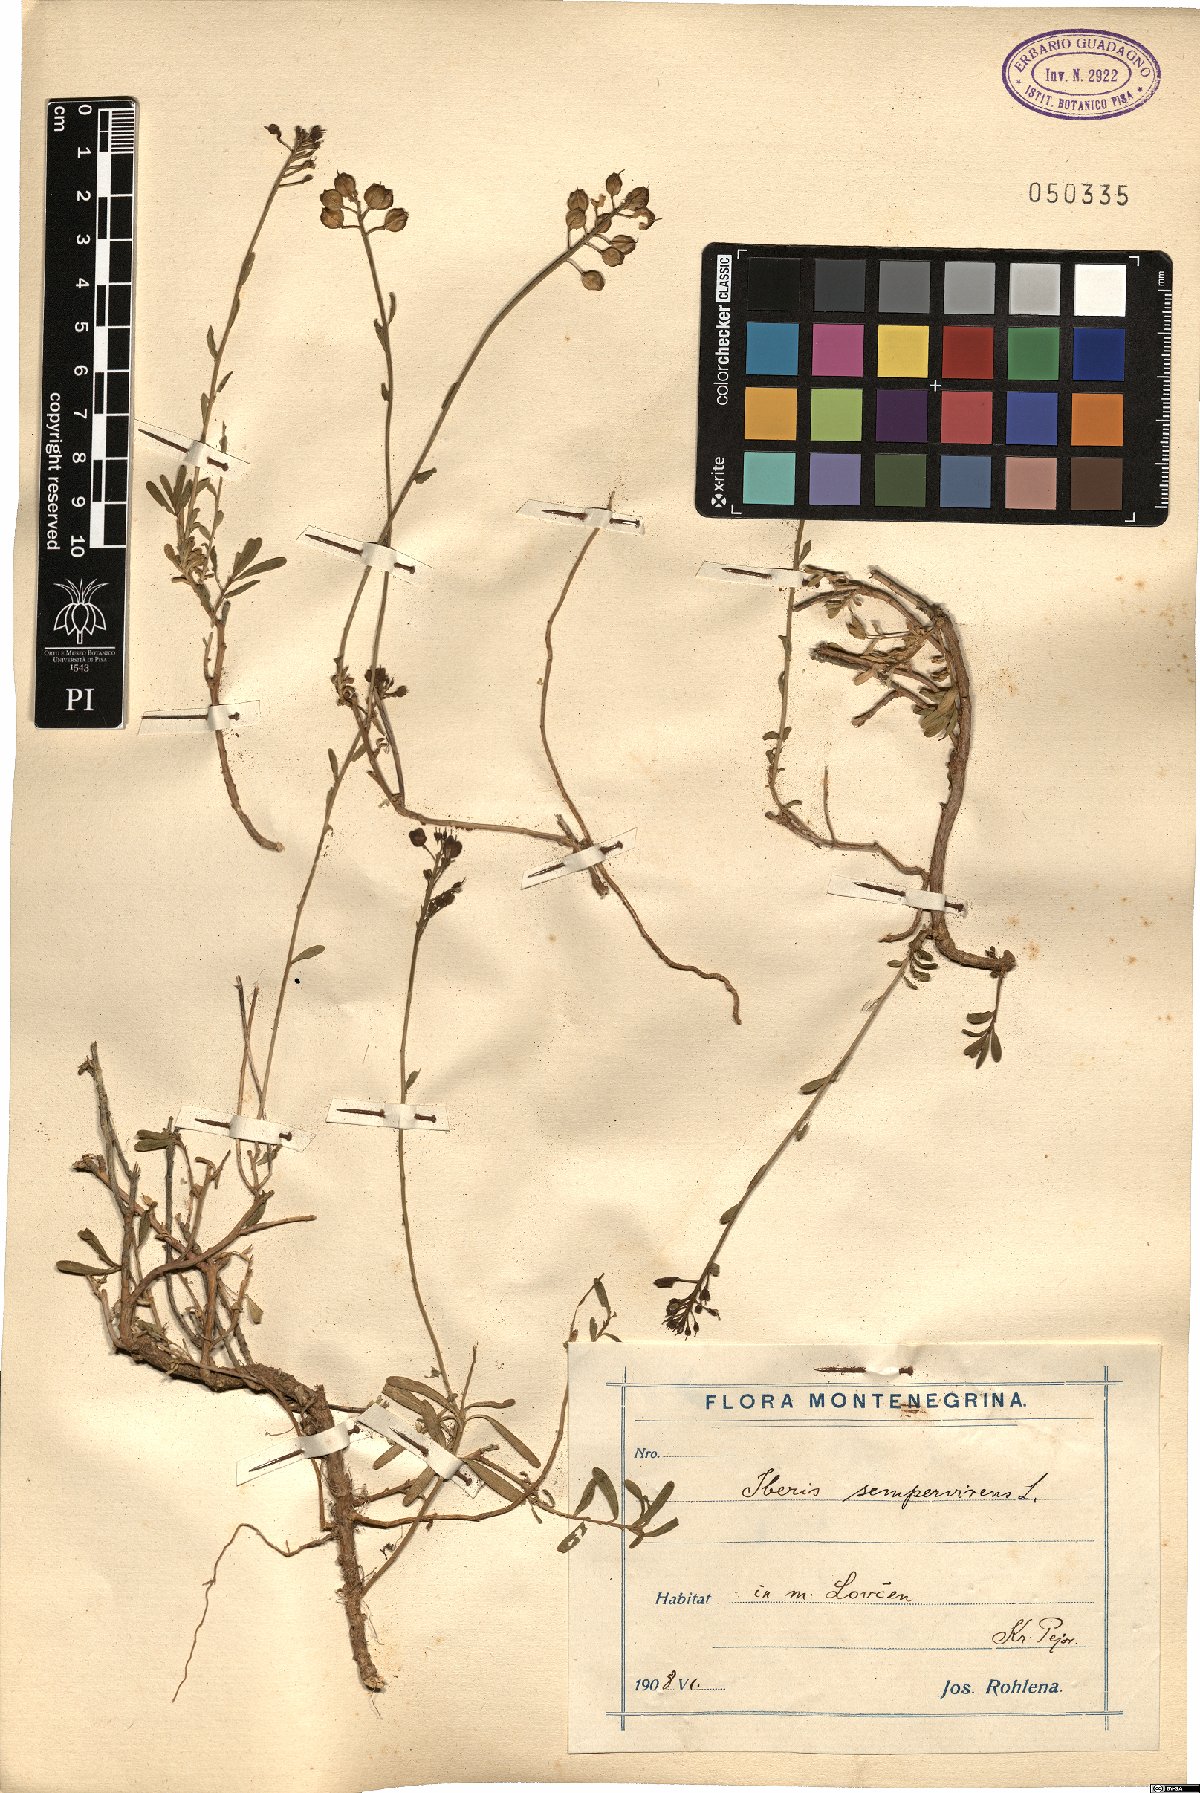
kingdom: Plantae
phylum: Tracheophyta
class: Magnoliopsida
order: Brassicales
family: Brassicaceae
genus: Iberis
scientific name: Iberis sempervirens
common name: Evergreen candytuft
